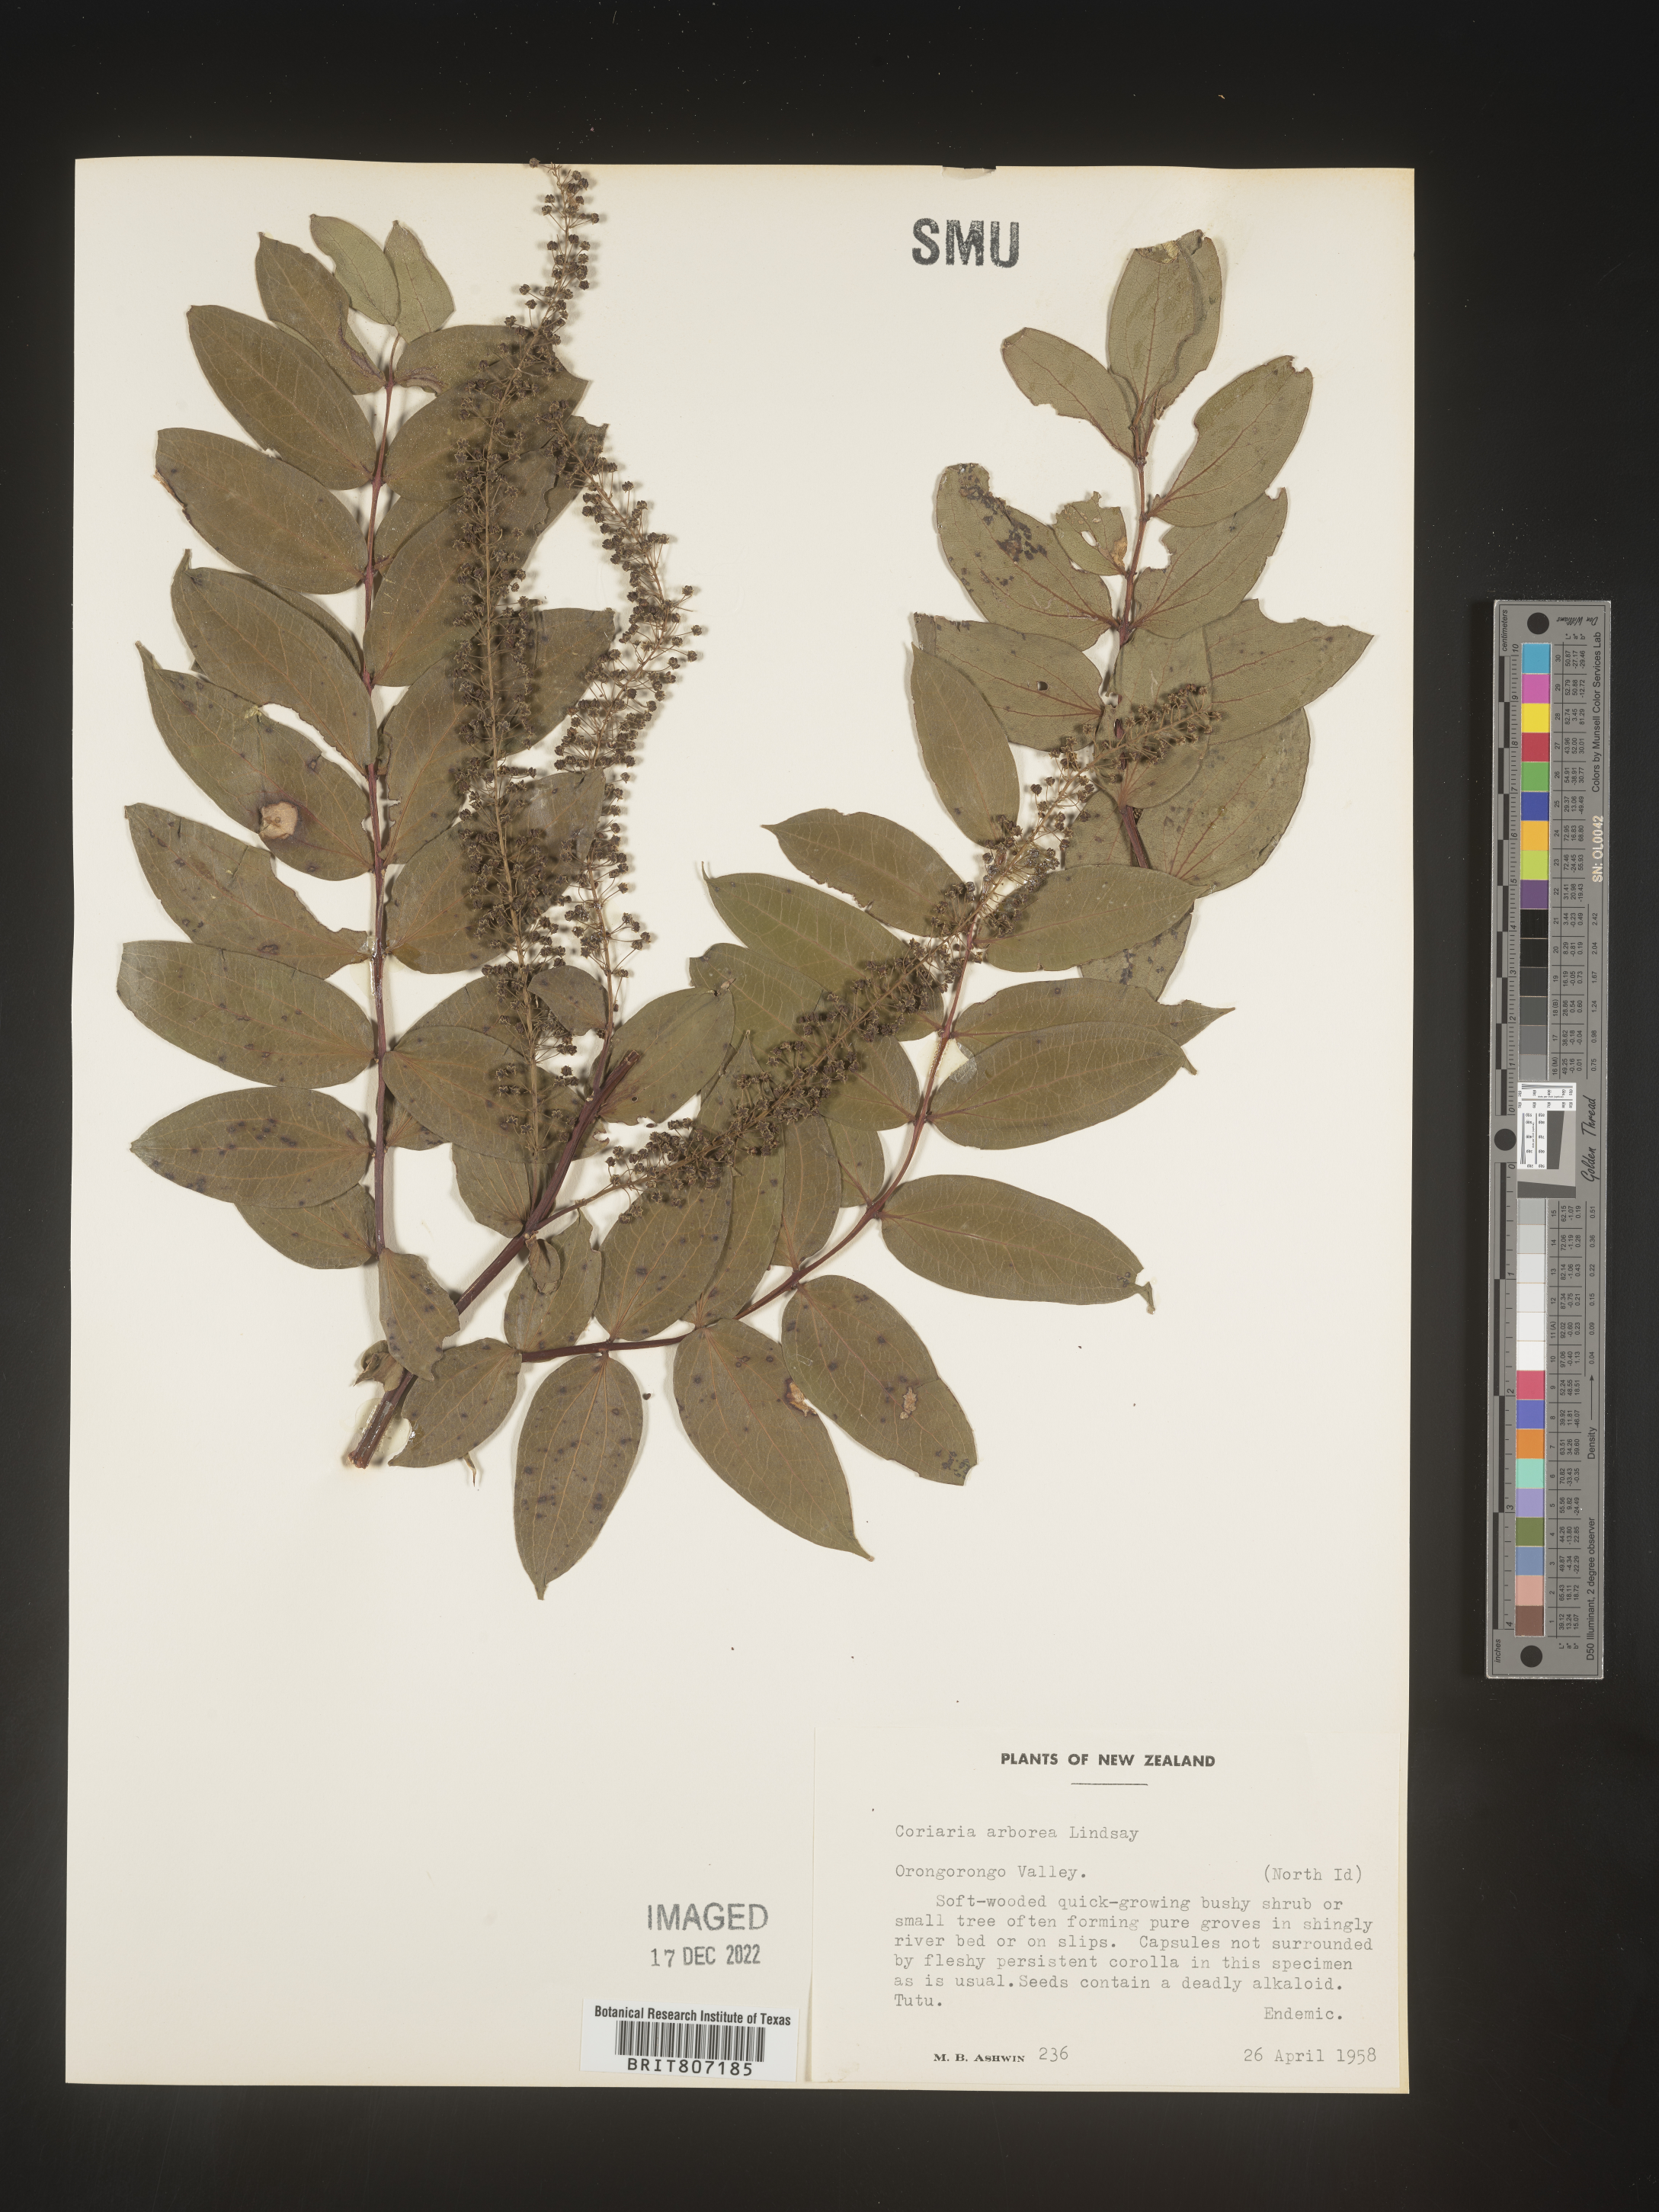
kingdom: Plantae
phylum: Tracheophyta
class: Magnoliopsida
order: Cucurbitales
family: Coriariaceae
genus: Coriaria
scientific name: Coriaria
